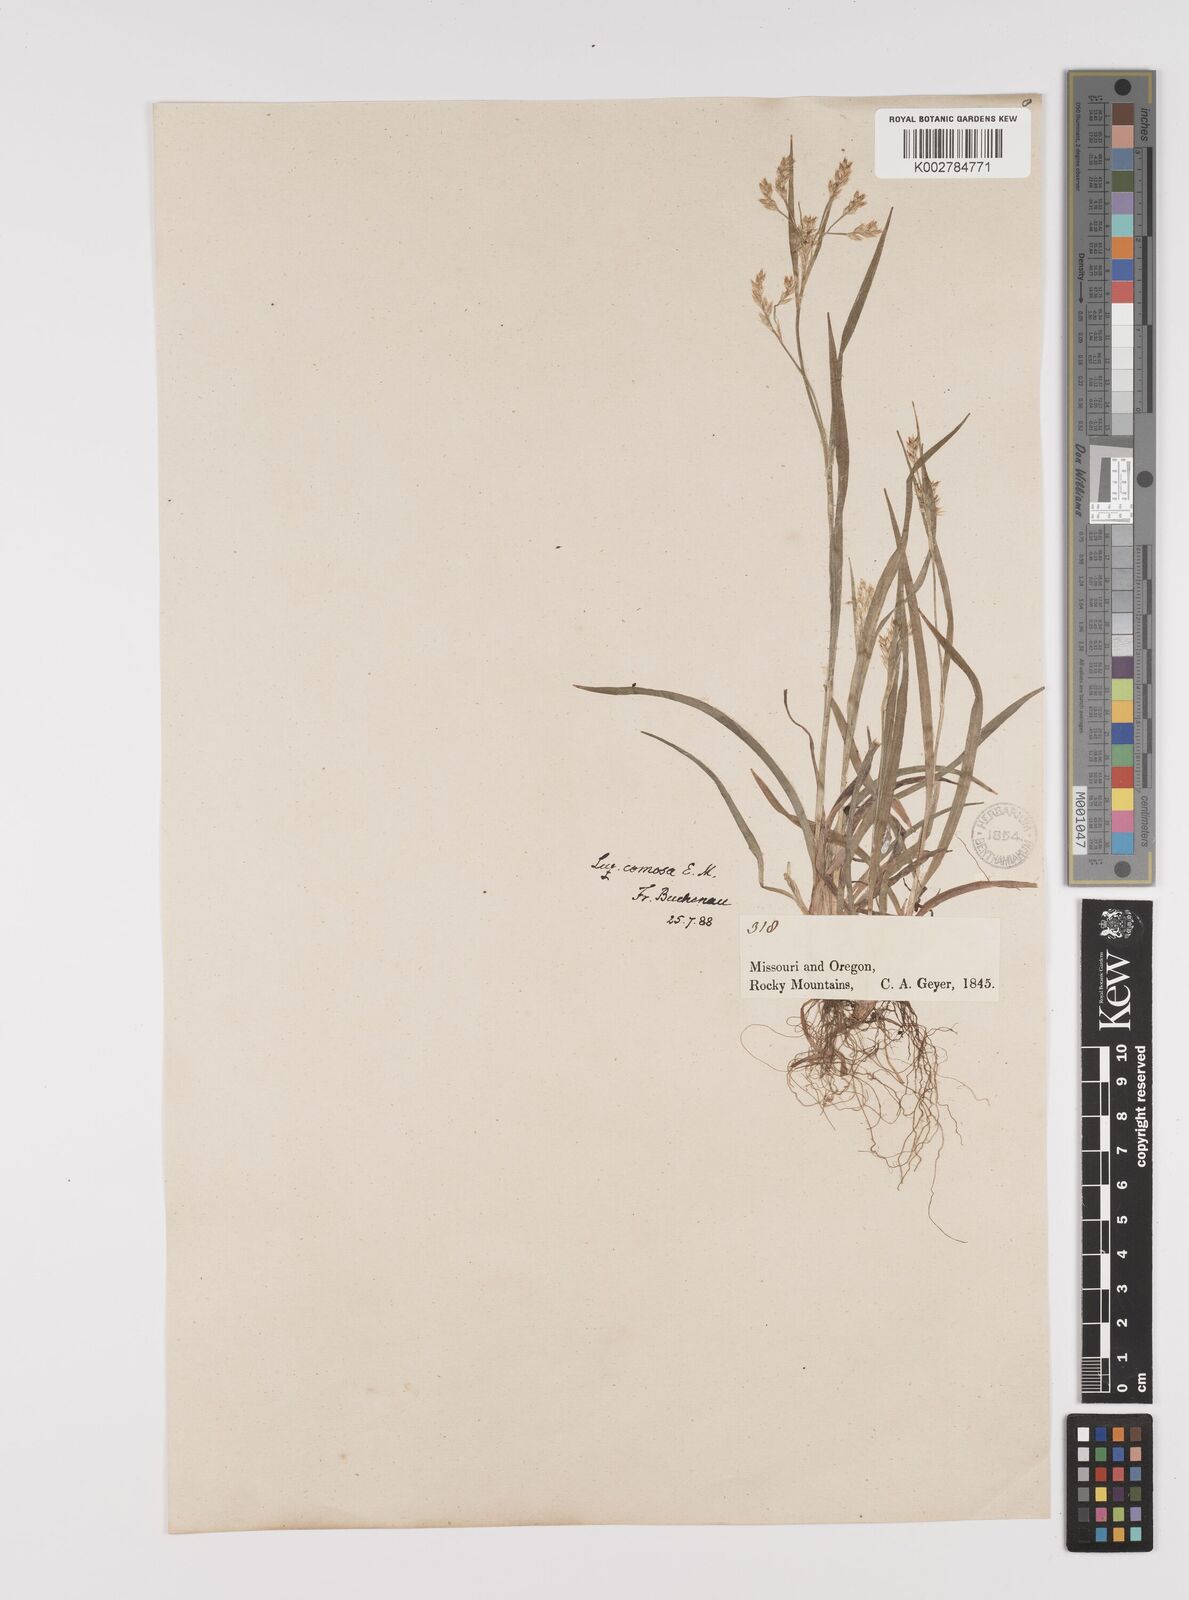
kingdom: Plantae
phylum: Tracheophyta
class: Liliopsida
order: Poales
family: Juncaceae
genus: Luzula
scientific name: Luzula comosa
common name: Pacific woodrush
